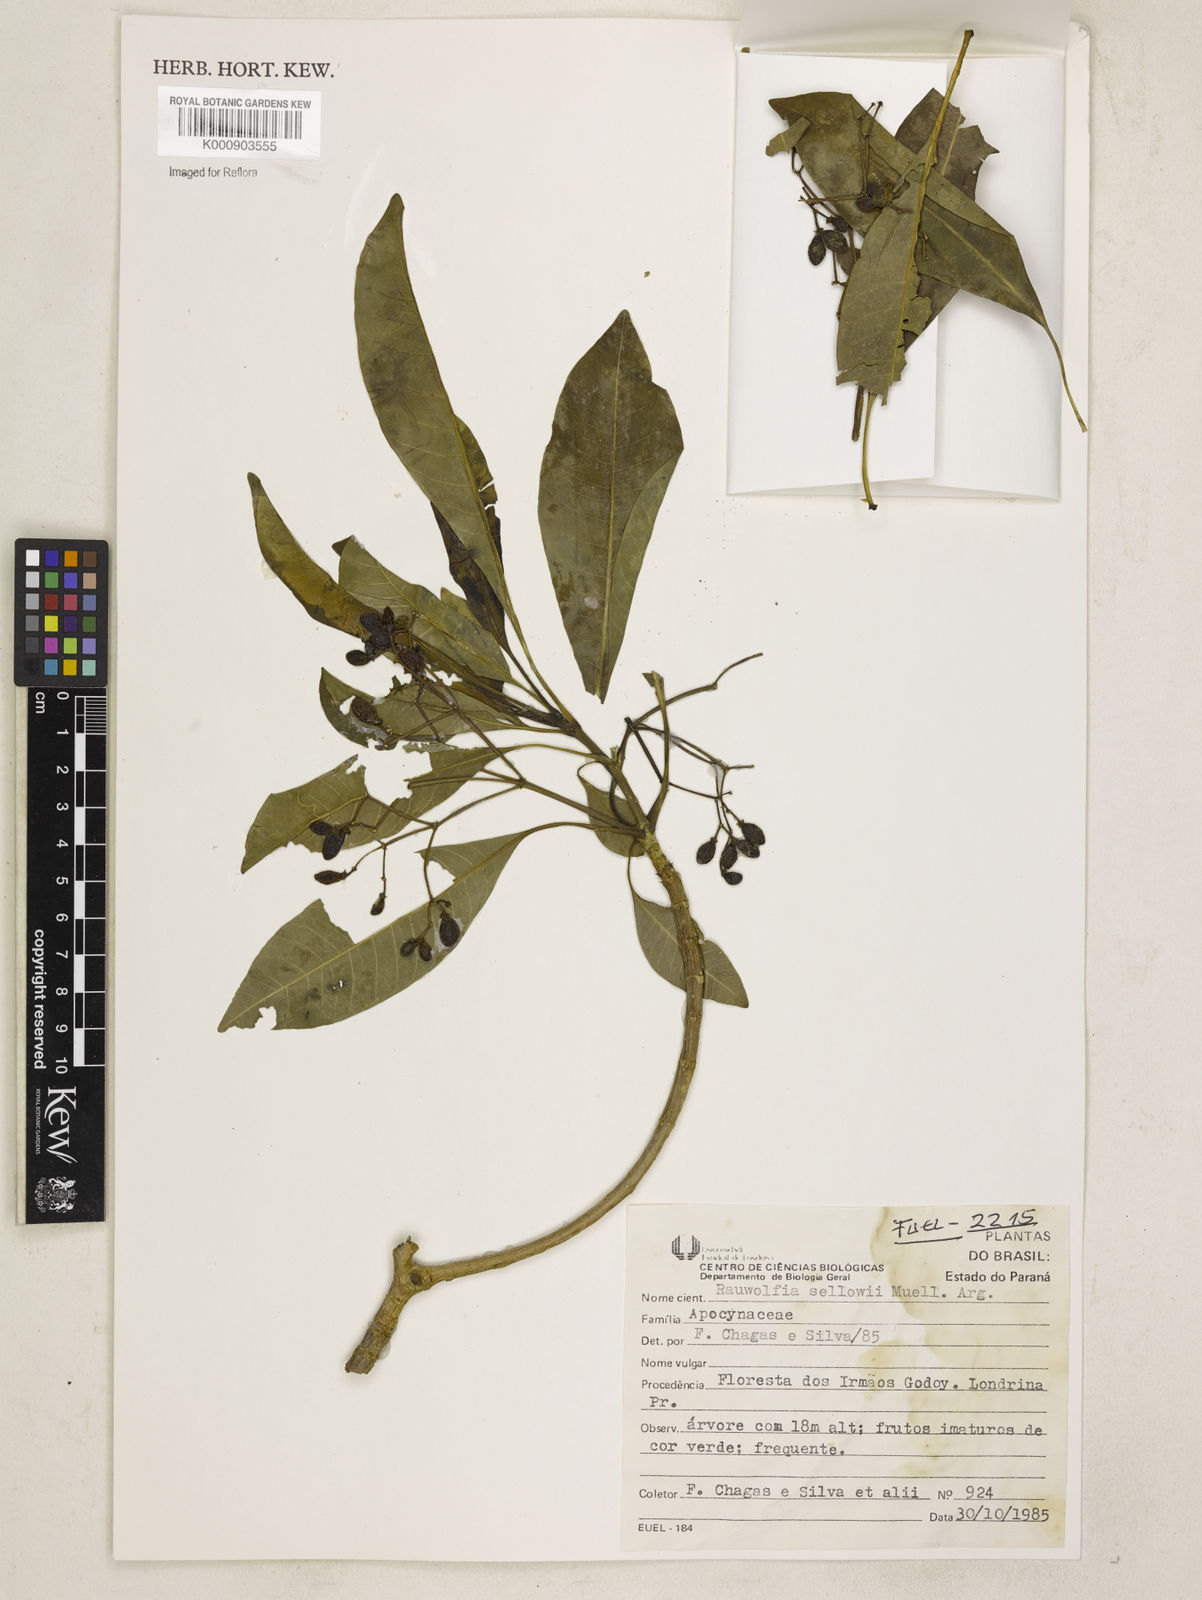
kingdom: Plantae
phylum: Tracheophyta
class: Magnoliopsida
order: Gentianales
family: Apocynaceae
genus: Rauvolfia
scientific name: Rauvolfia
